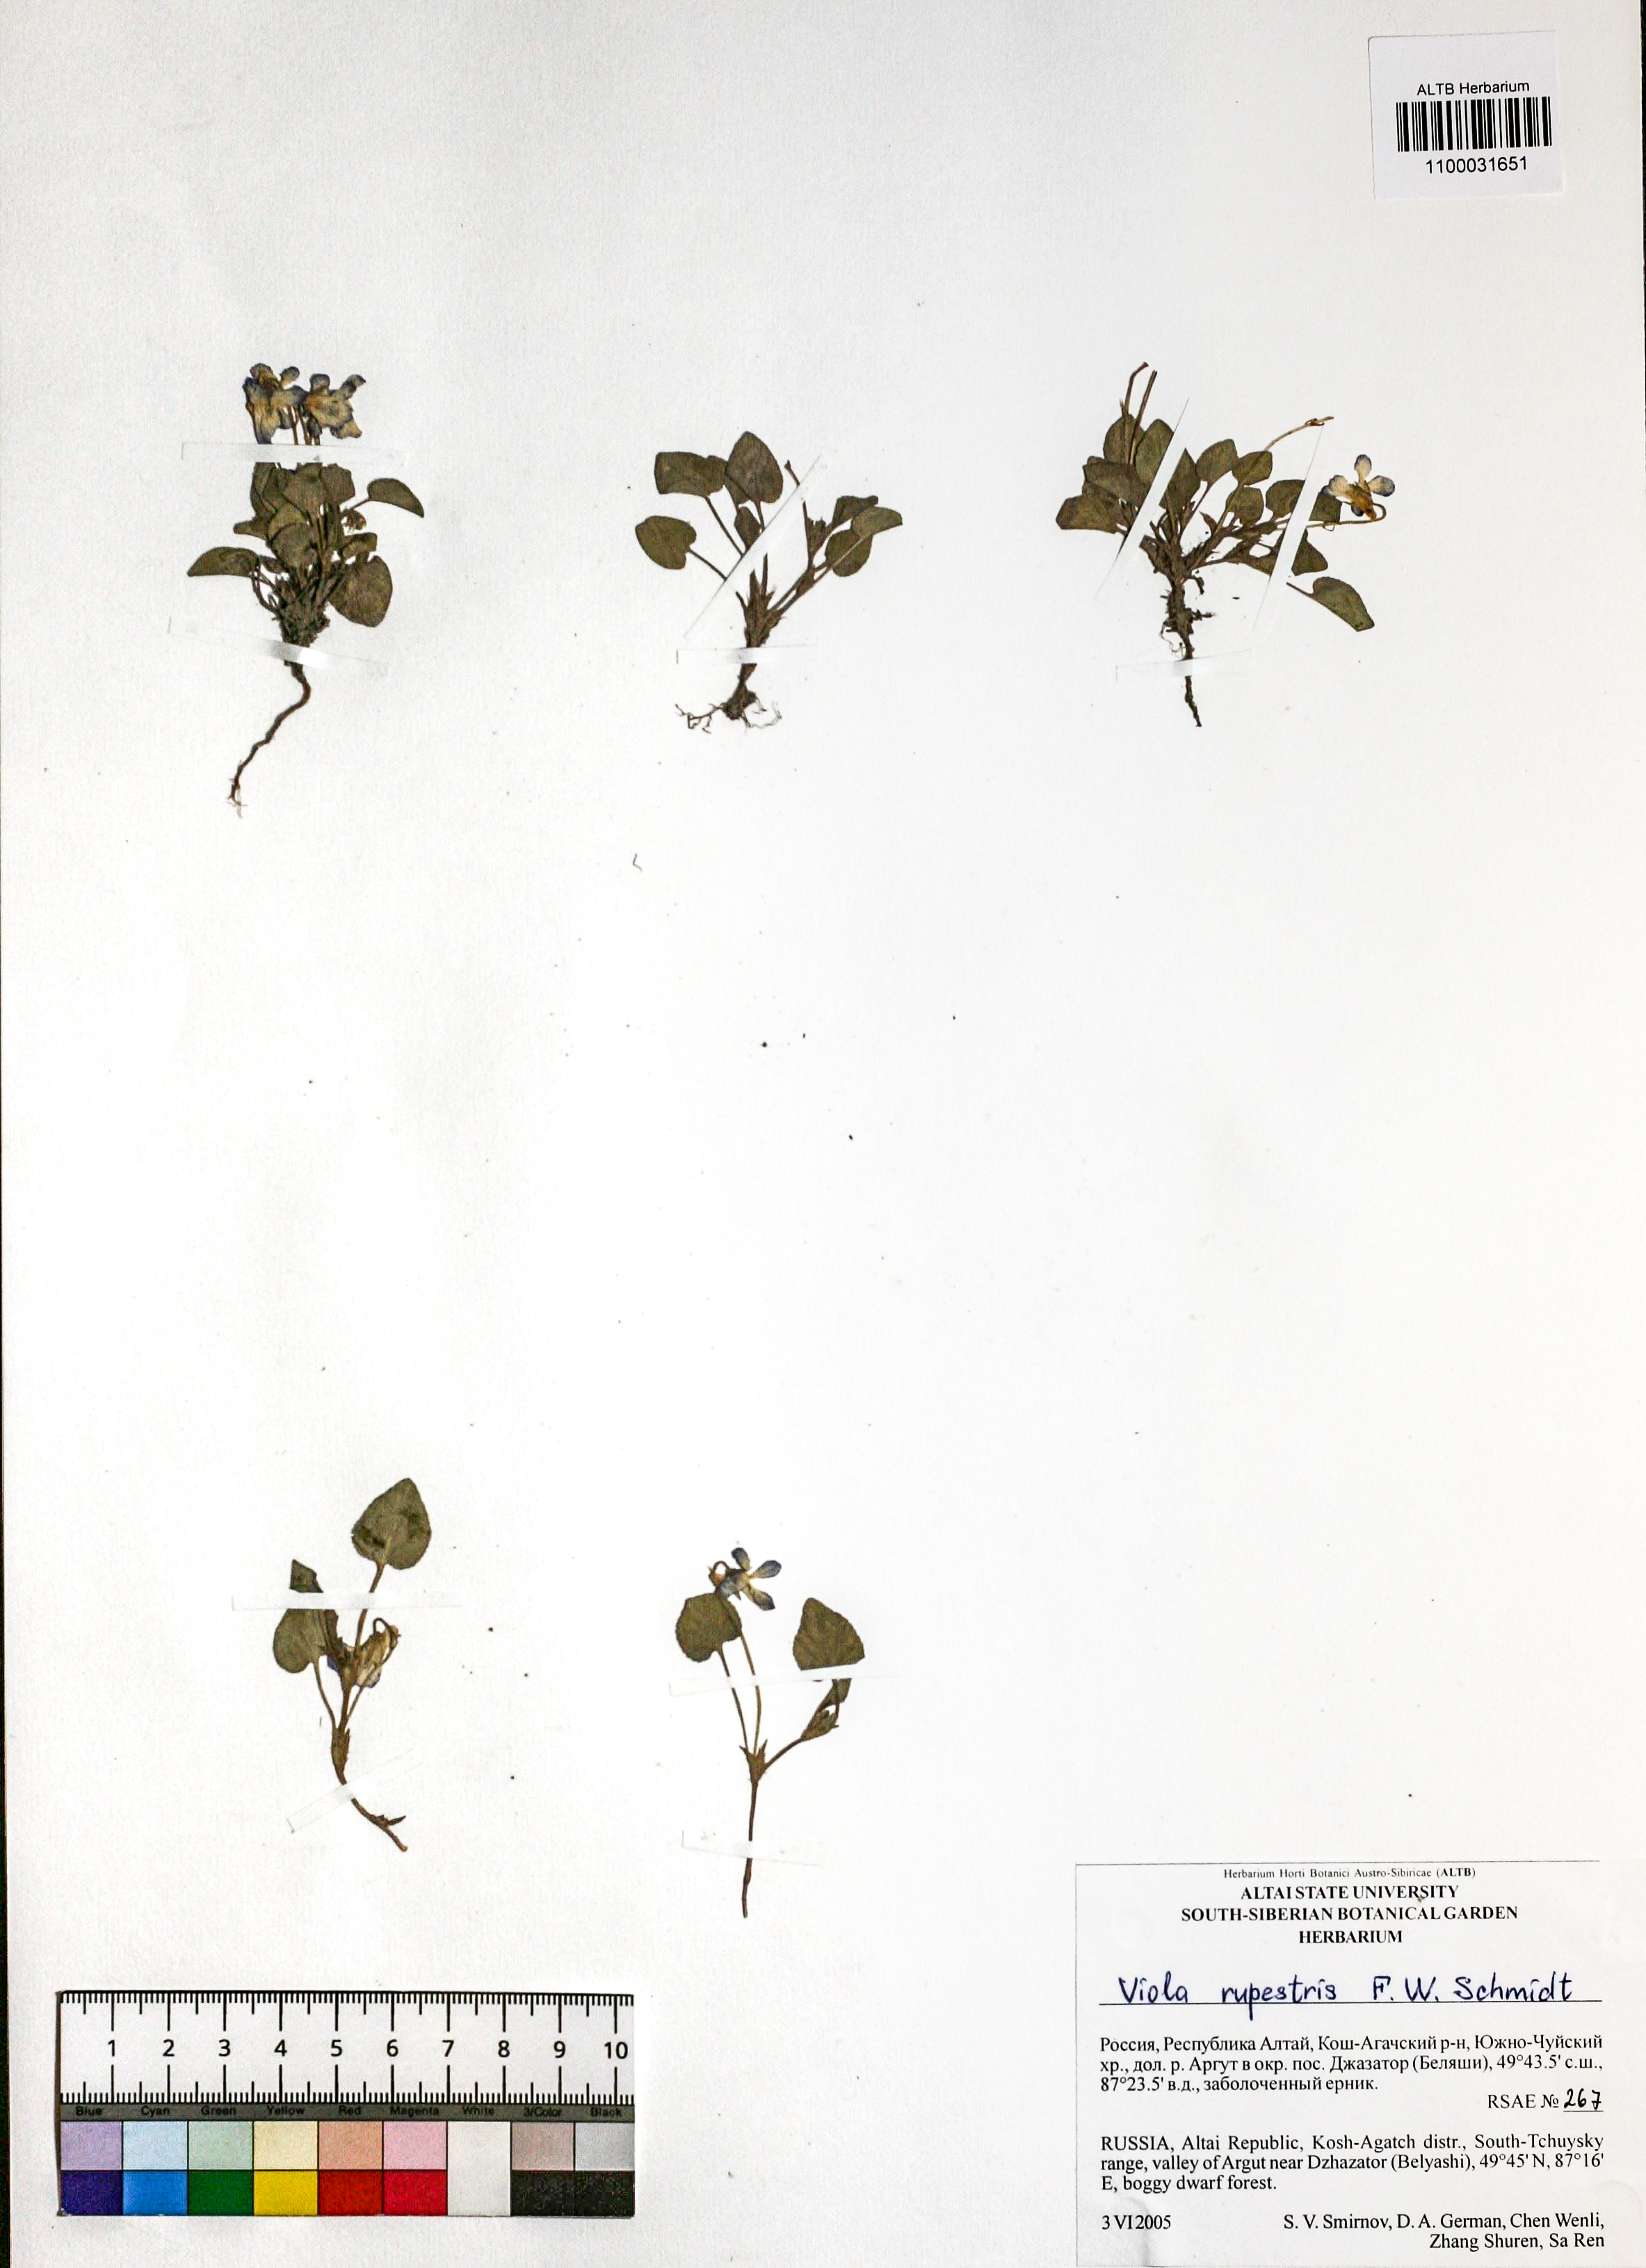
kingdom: Plantae
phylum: Tracheophyta
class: Magnoliopsida
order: Malpighiales
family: Violaceae
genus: Viola
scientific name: Viola rupestris
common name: Teesdale violet
